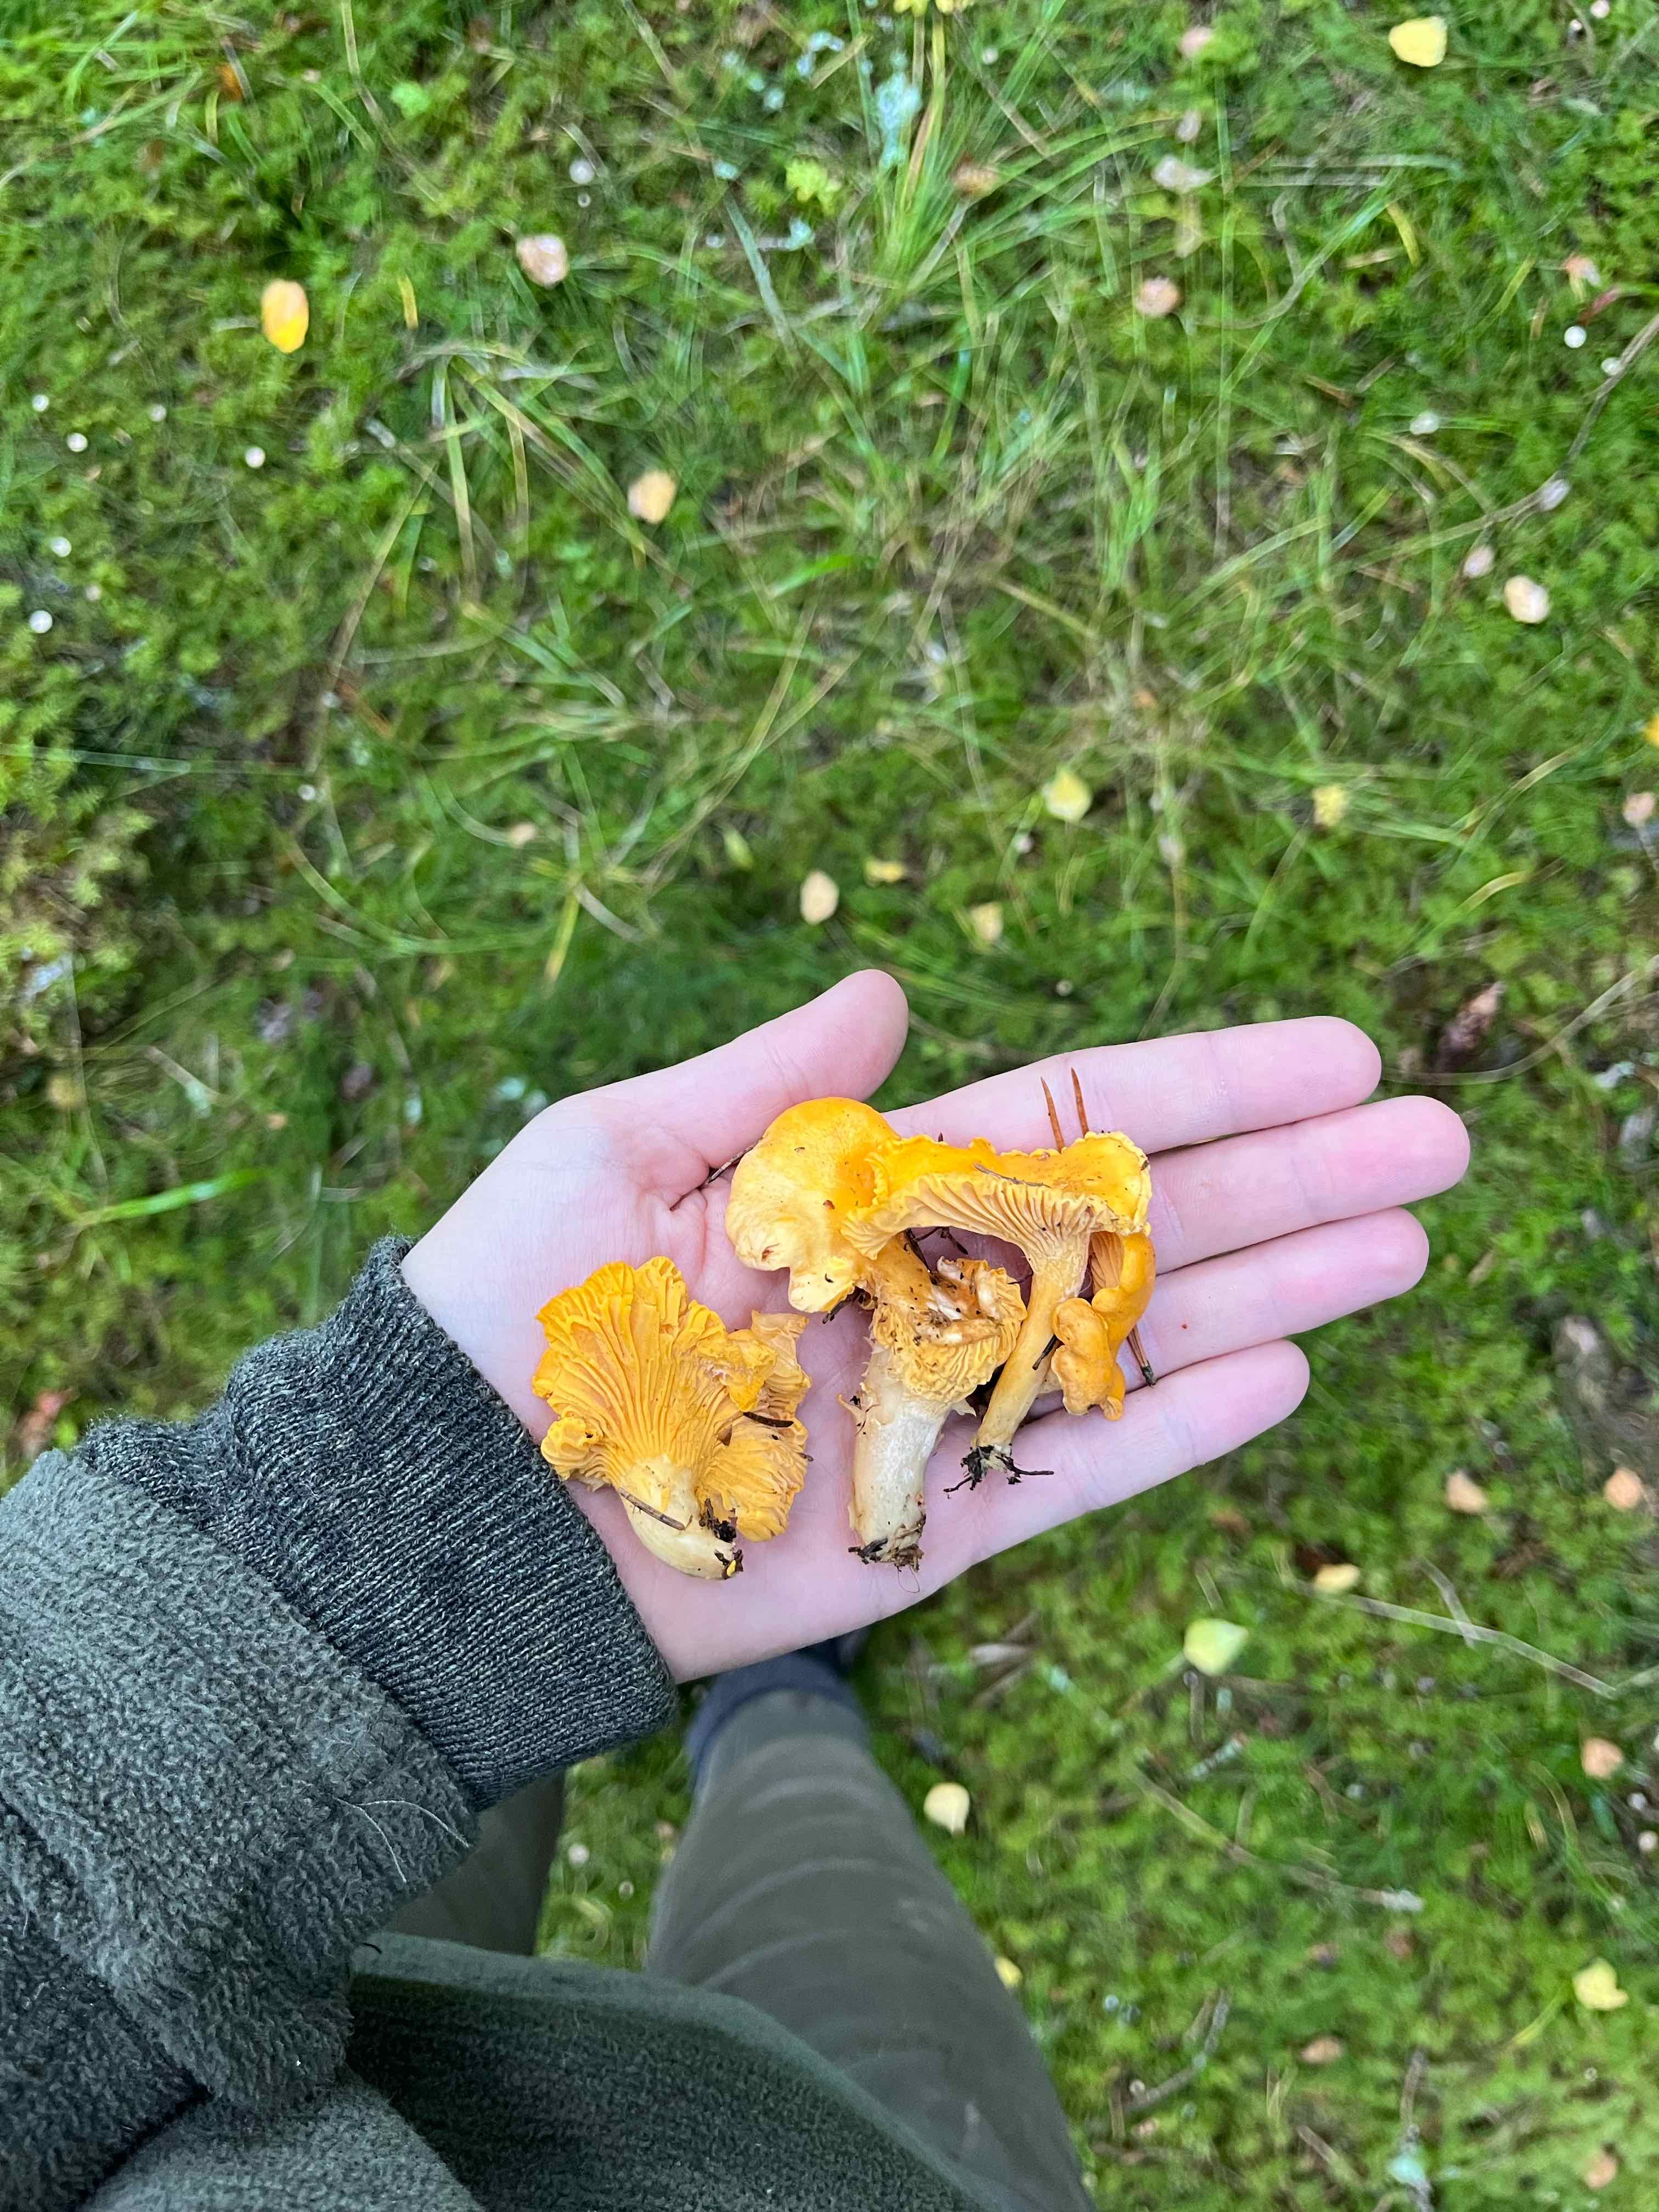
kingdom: Fungi
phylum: Basidiomycota
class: Agaricomycetes
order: Cantharellales
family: Hydnaceae
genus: Cantharellus
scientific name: Cantharellus cibarius
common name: almindelig kantarel
